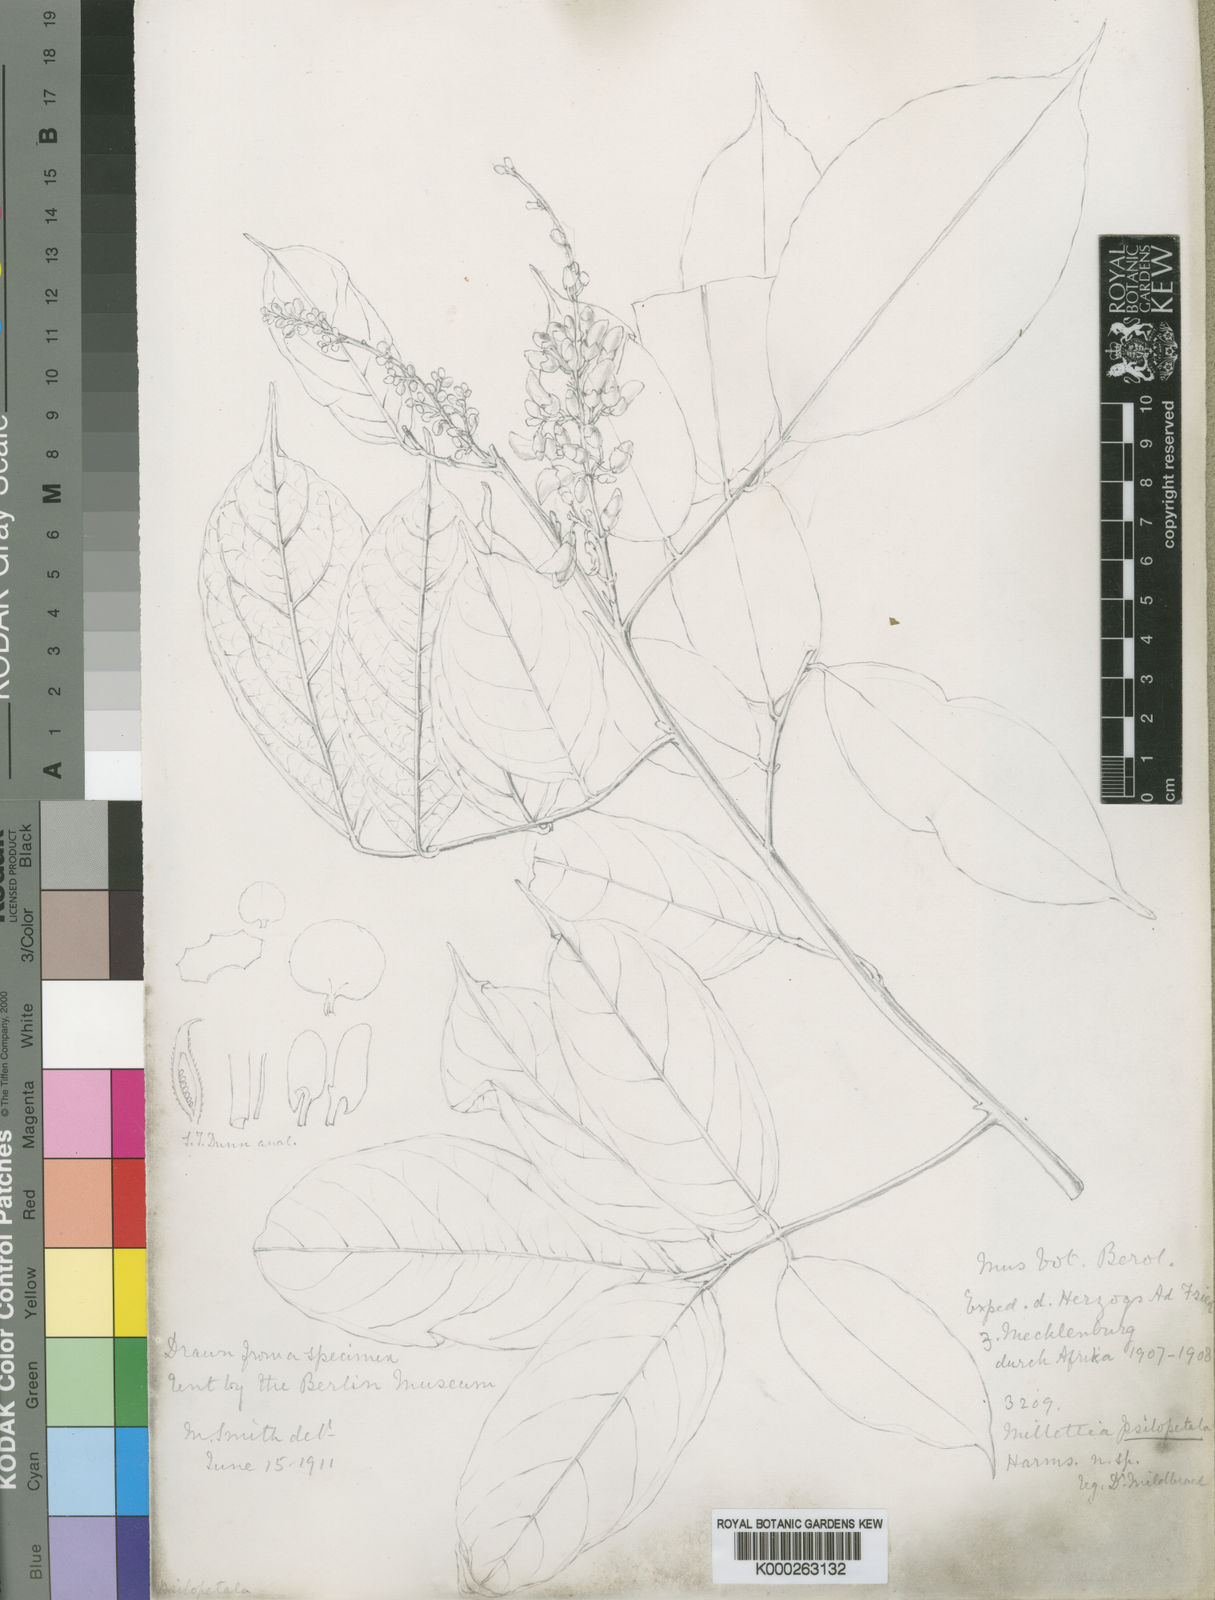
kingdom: Plantae
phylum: Tracheophyta
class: Magnoliopsida
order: Fabales
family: Fabaceae
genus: Millettia
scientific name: Millettia psilopetala
